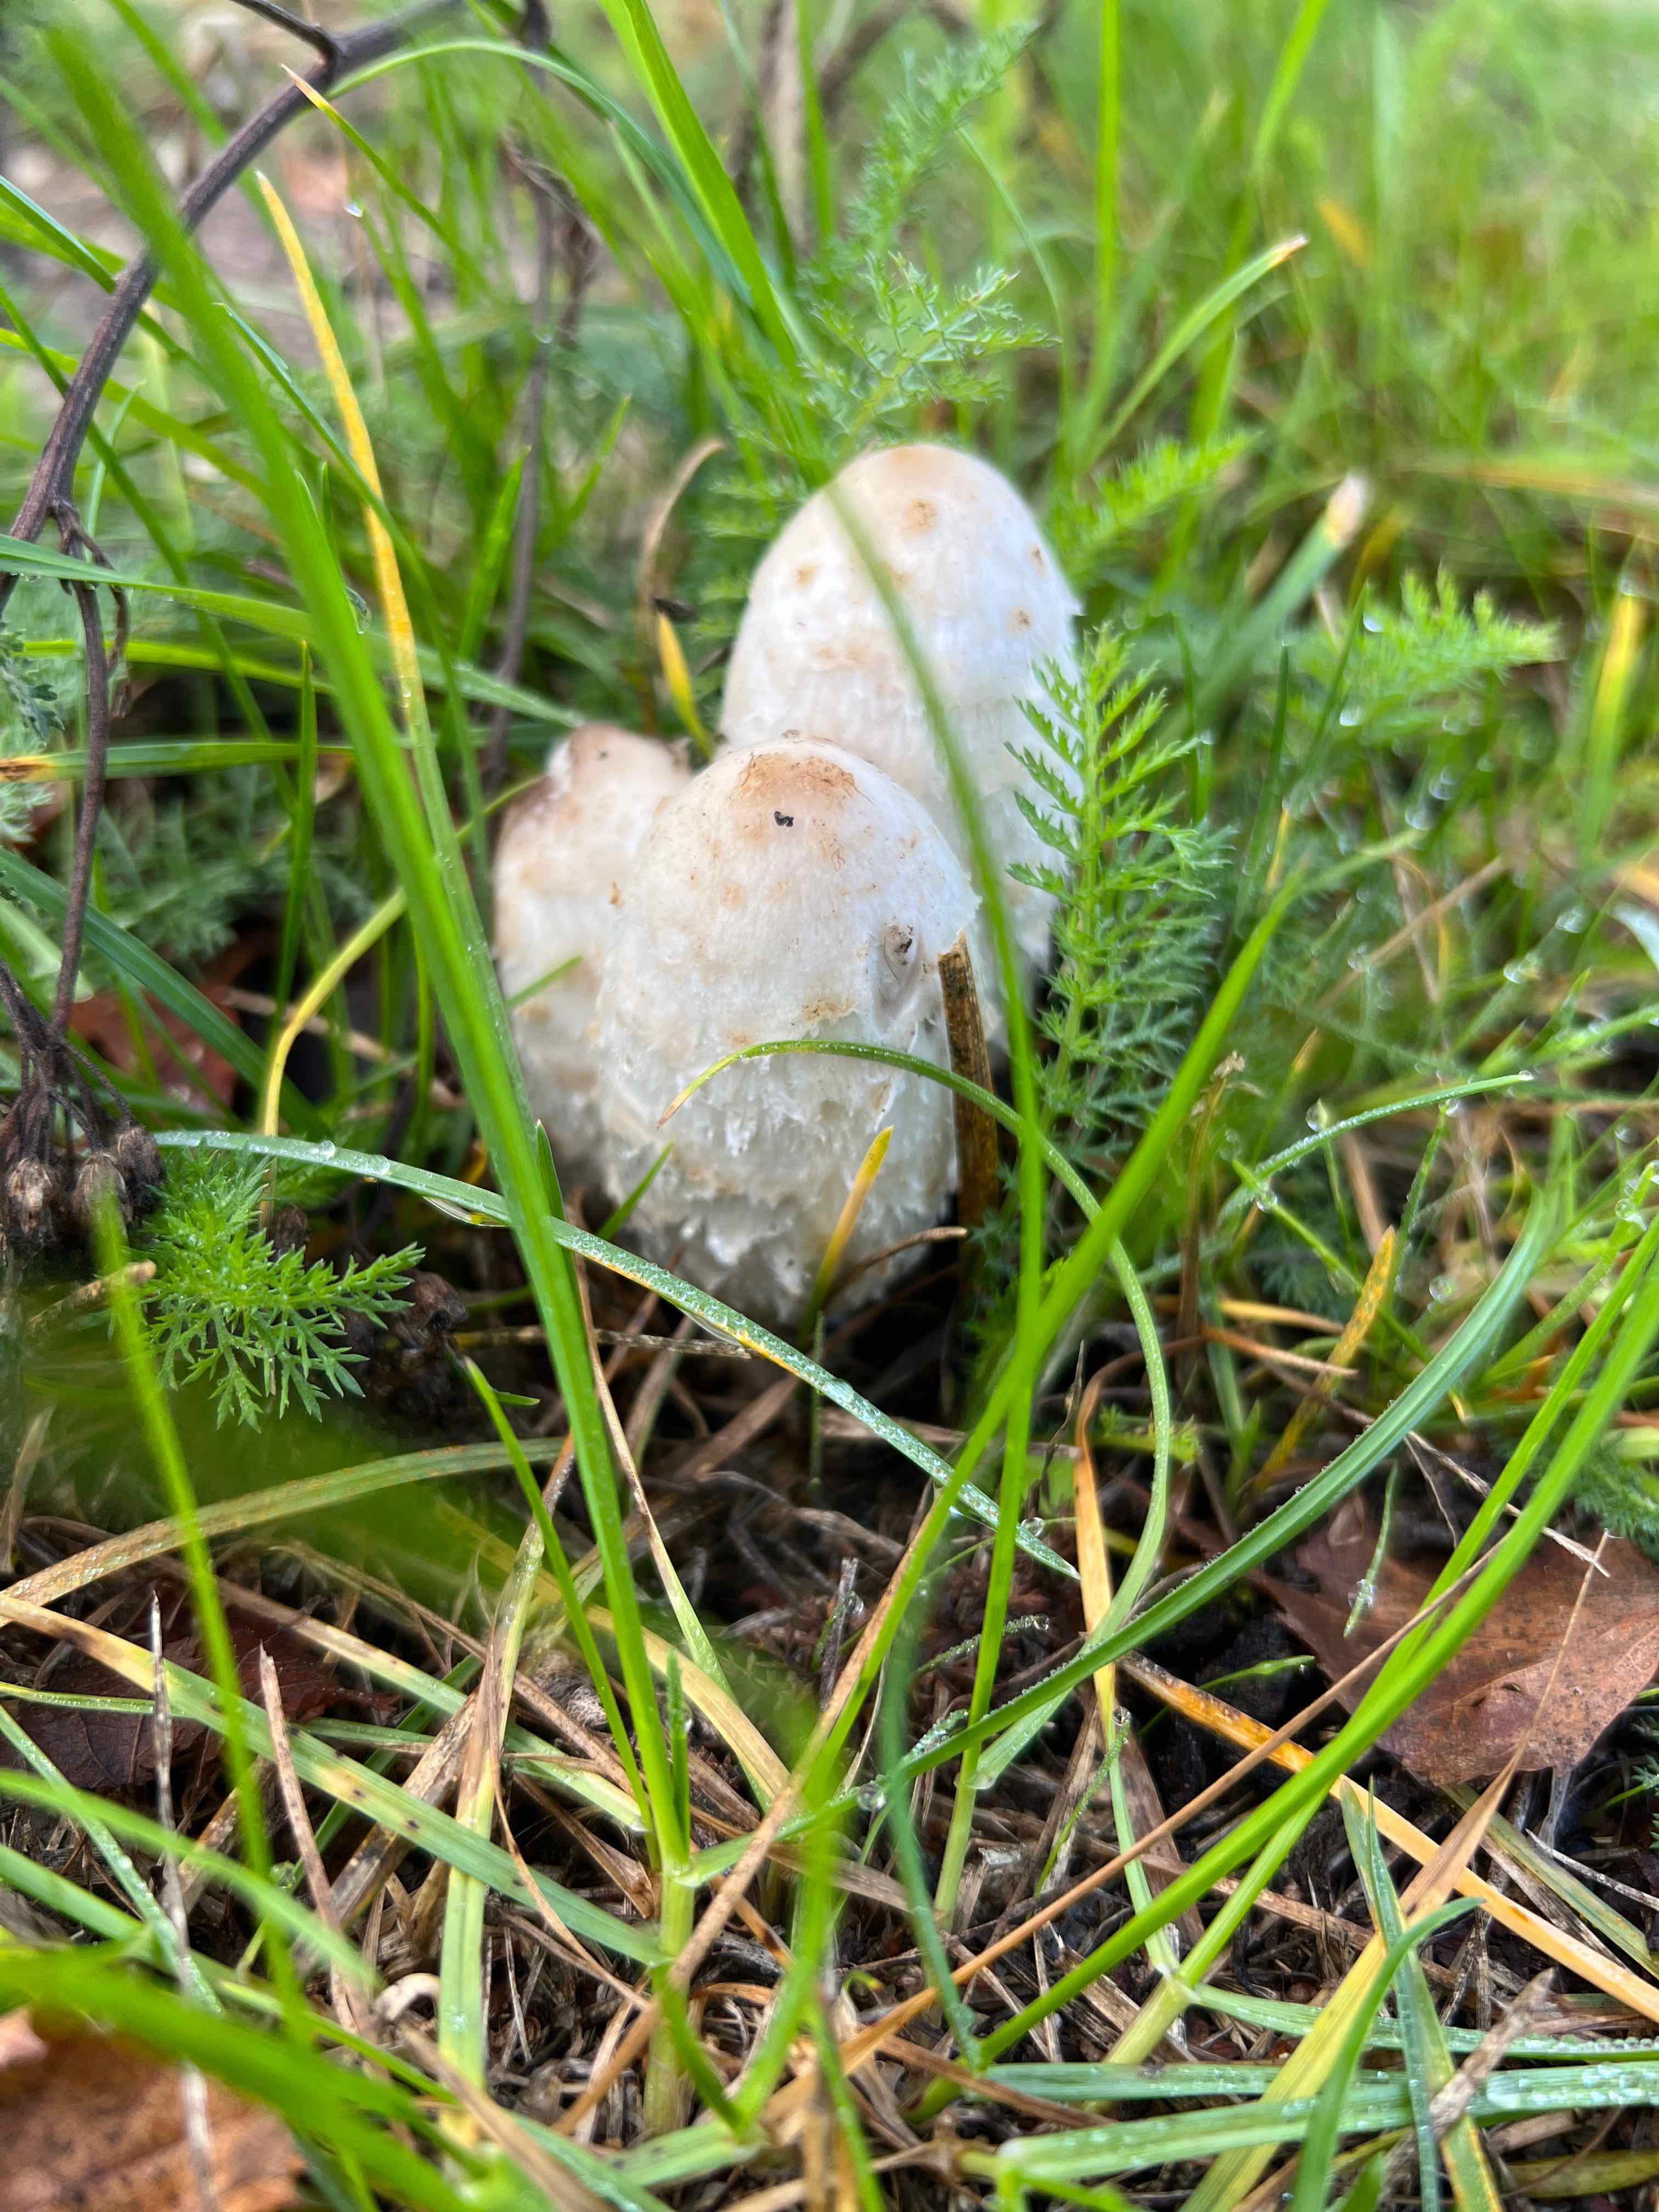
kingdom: Fungi
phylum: Basidiomycota
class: Agaricomycetes
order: Agaricales
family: Agaricaceae
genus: Coprinus
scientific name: Coprinus comatus
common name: stor parykhat
